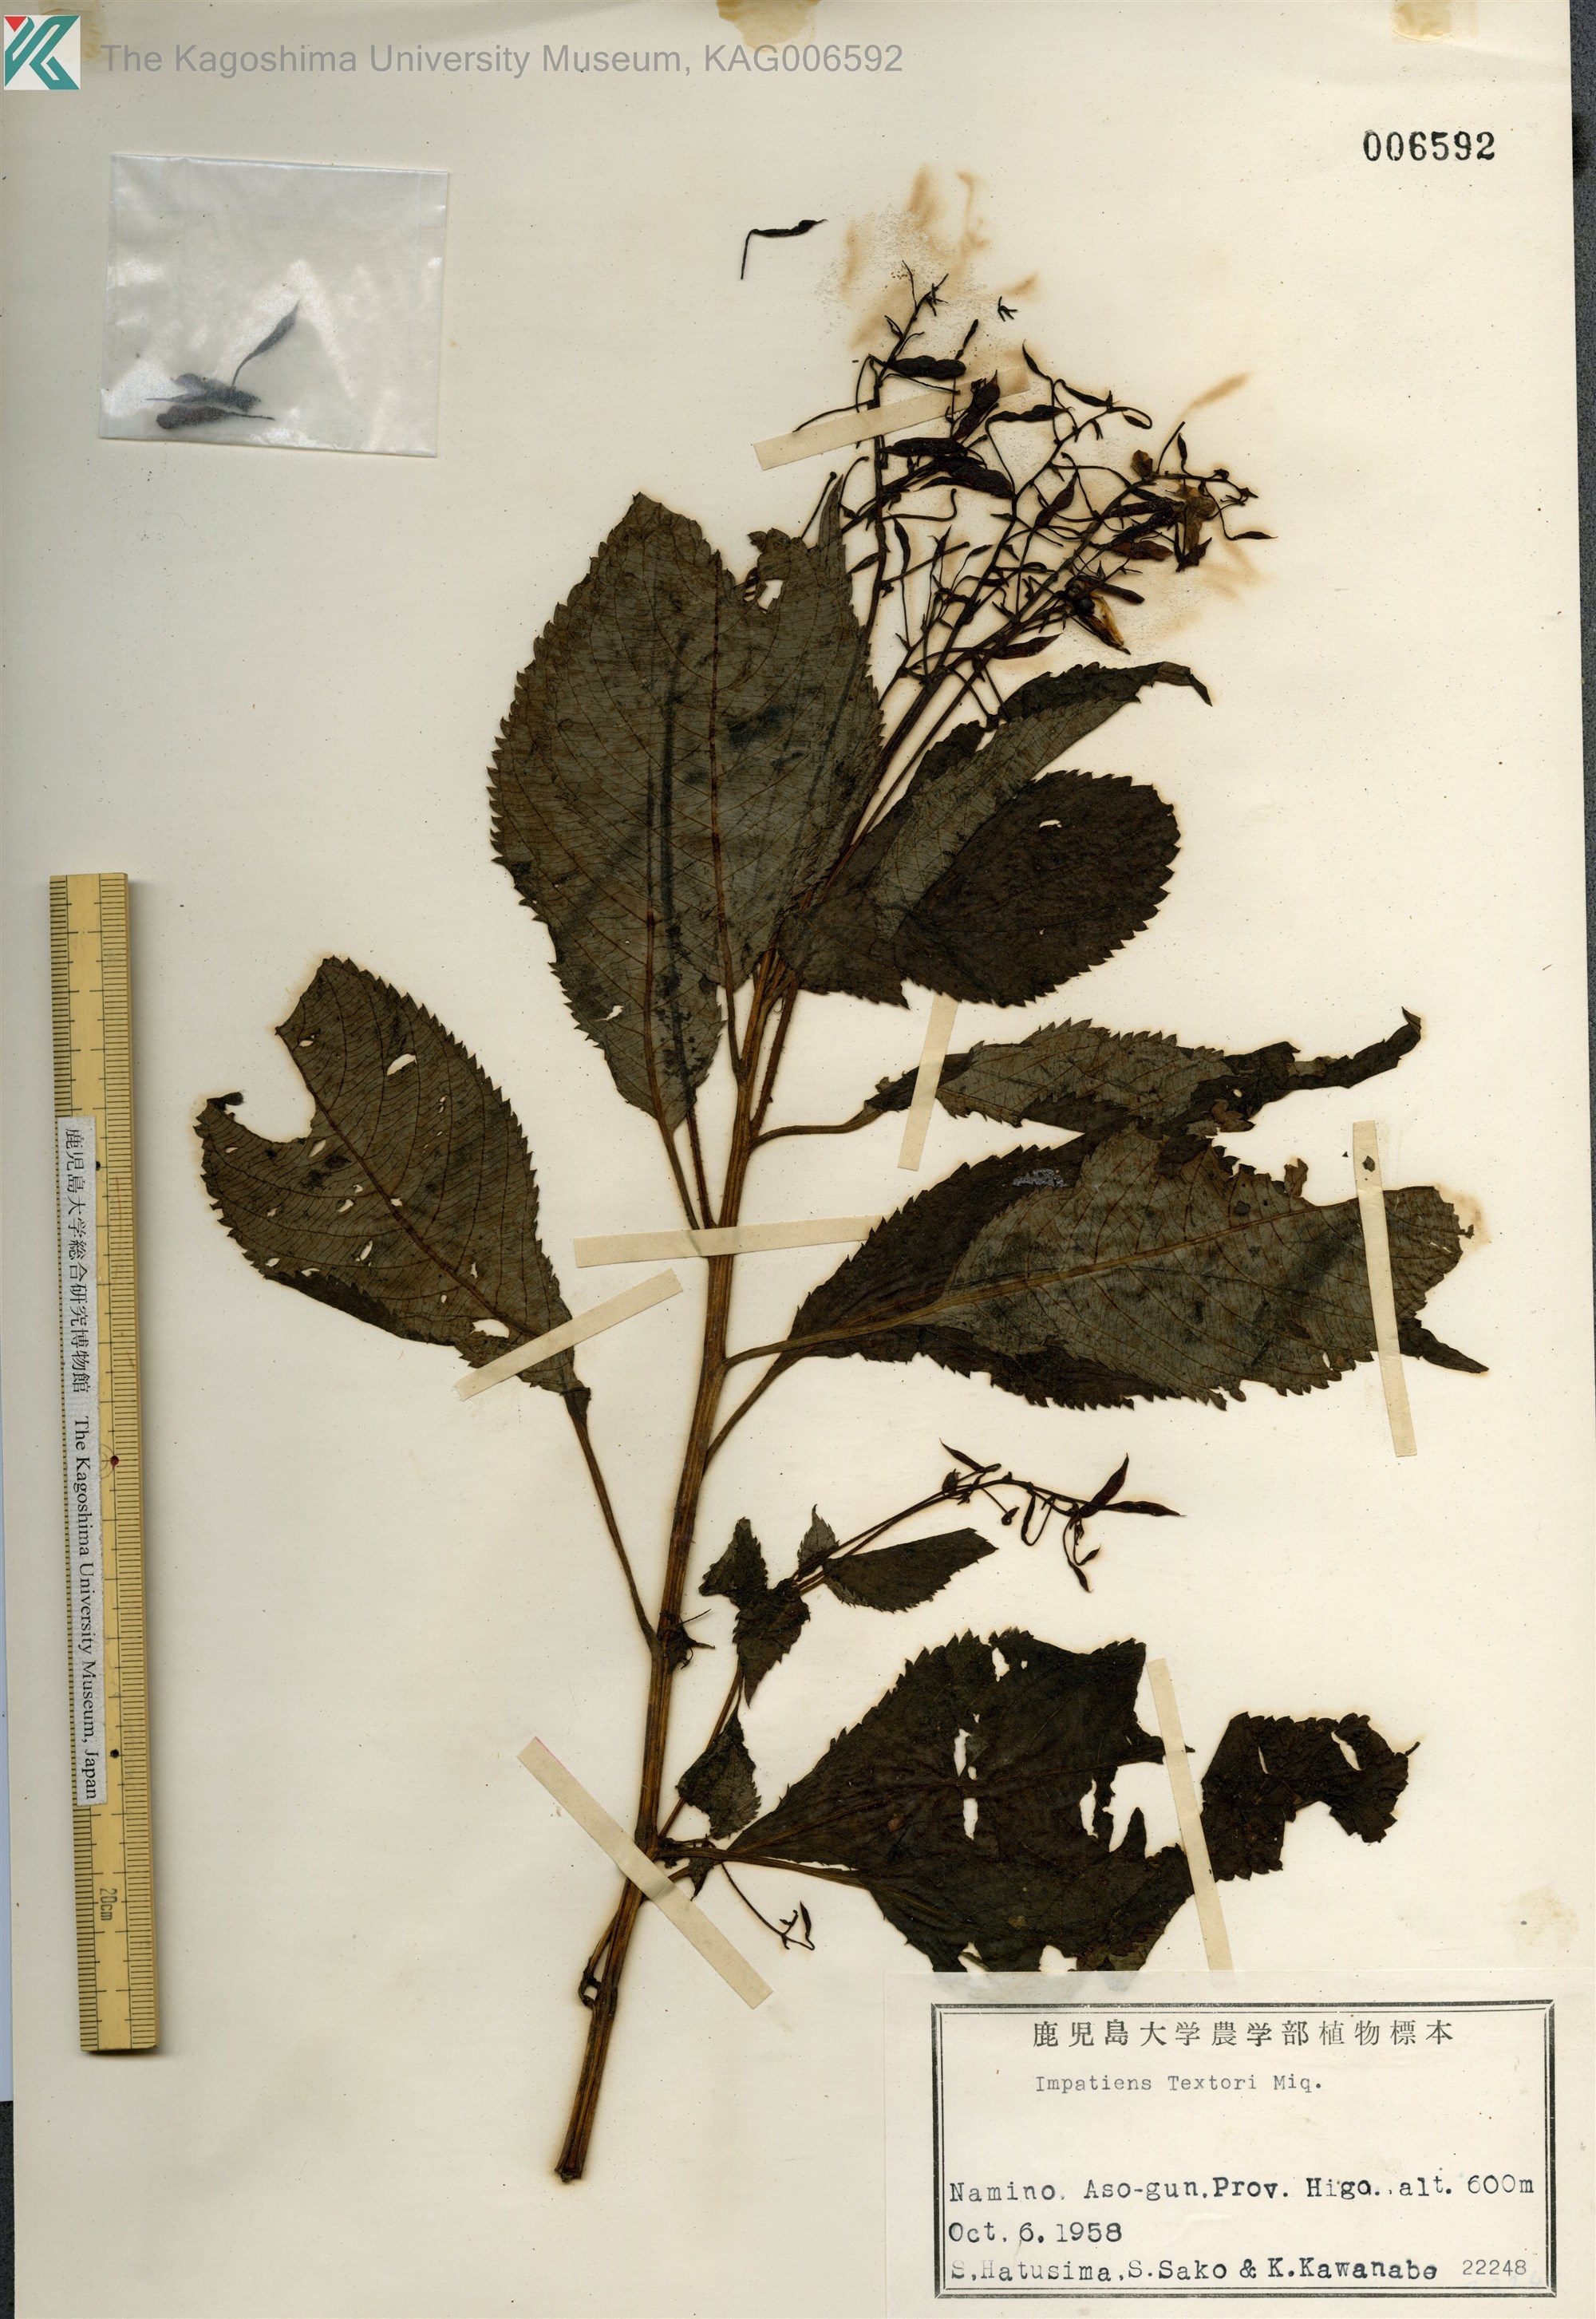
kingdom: Plantae
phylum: Tracheophyta
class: Magnoliopsida
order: Ericales
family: Balsaminaceae
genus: Impatiens
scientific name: Impatiens textorii
